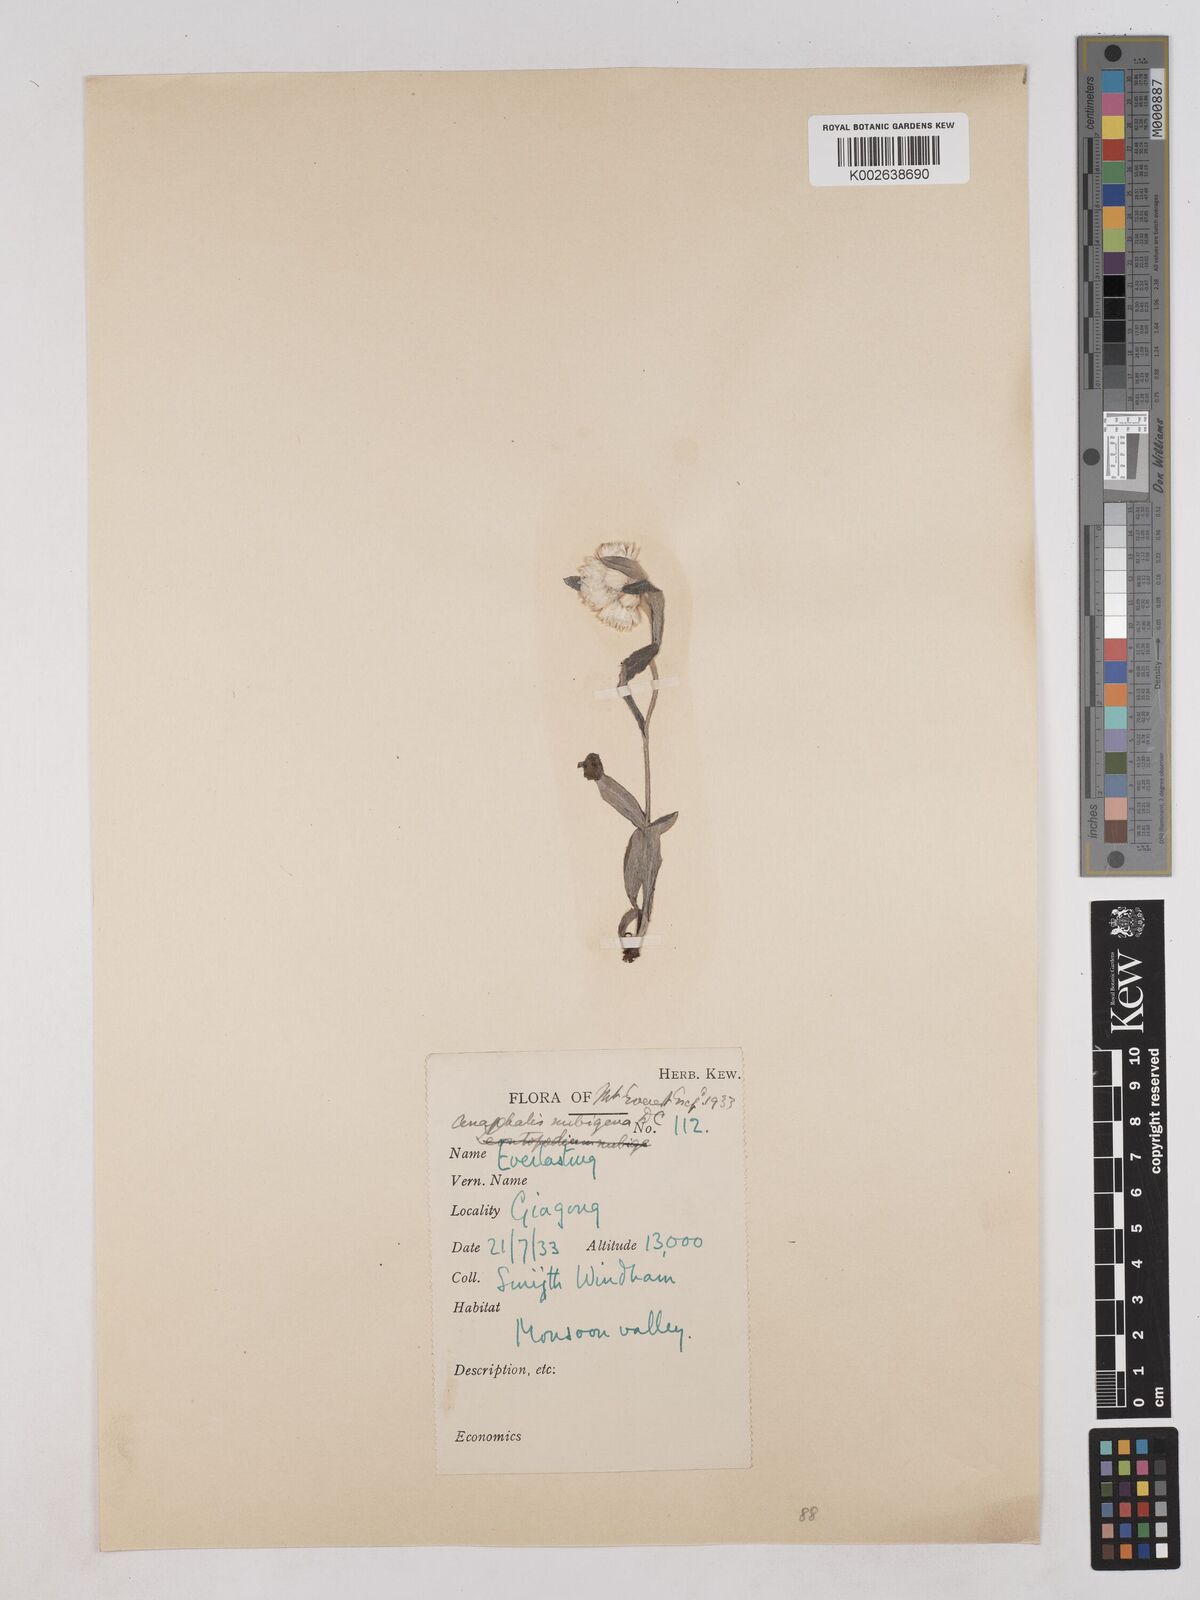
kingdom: Plantae
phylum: Tracheophyta
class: Magnoliopsida
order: Asterales
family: Asteraceae
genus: Anaphalis
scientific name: Anaphalis nepalensis
